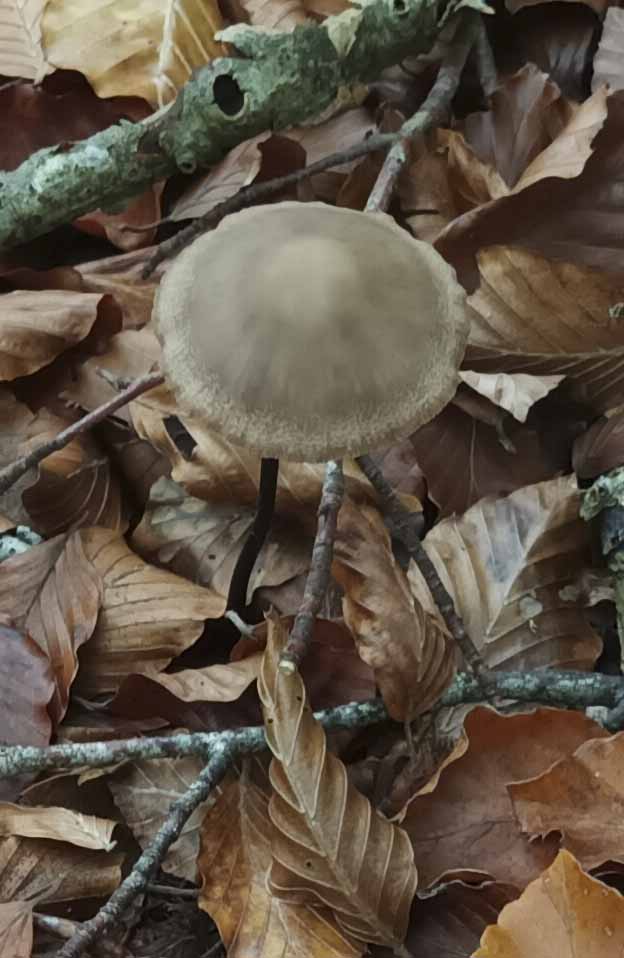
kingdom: Fungi
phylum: Basidiomycota
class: Agaricomycetes
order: Agaricales
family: Omphalotaceae
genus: Mycetinis
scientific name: Mycetinis alliaceus
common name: stor løghat
